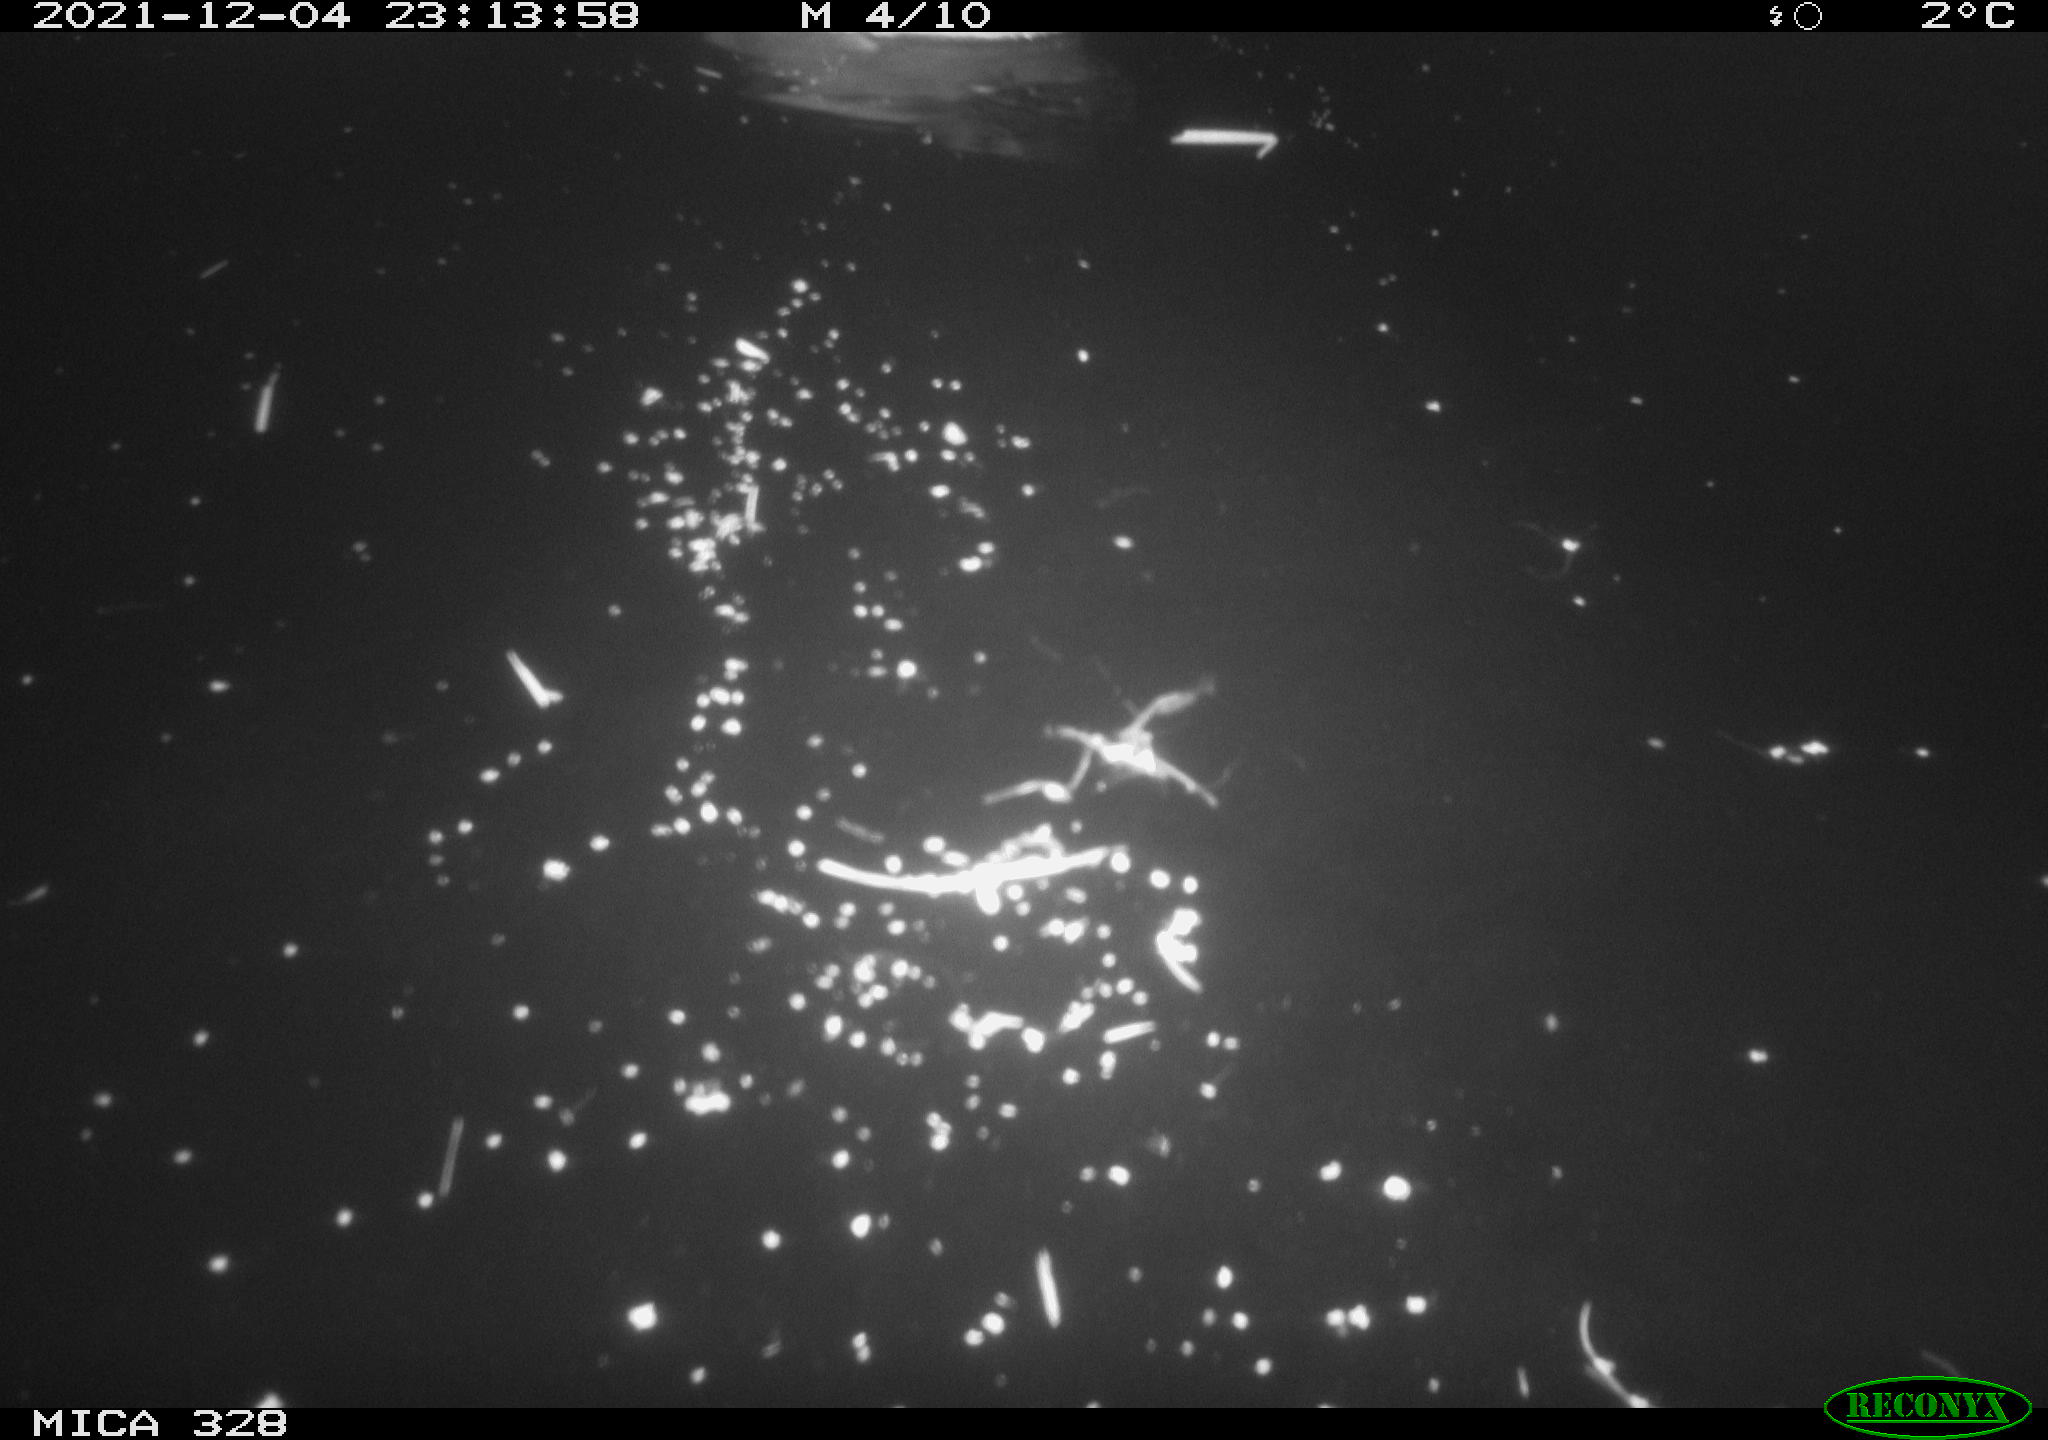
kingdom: Animalia
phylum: Chordata
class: Aves
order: Anseriformes
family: Anatidae
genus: Anas
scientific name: Anas platyrhynchos
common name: Mallard
